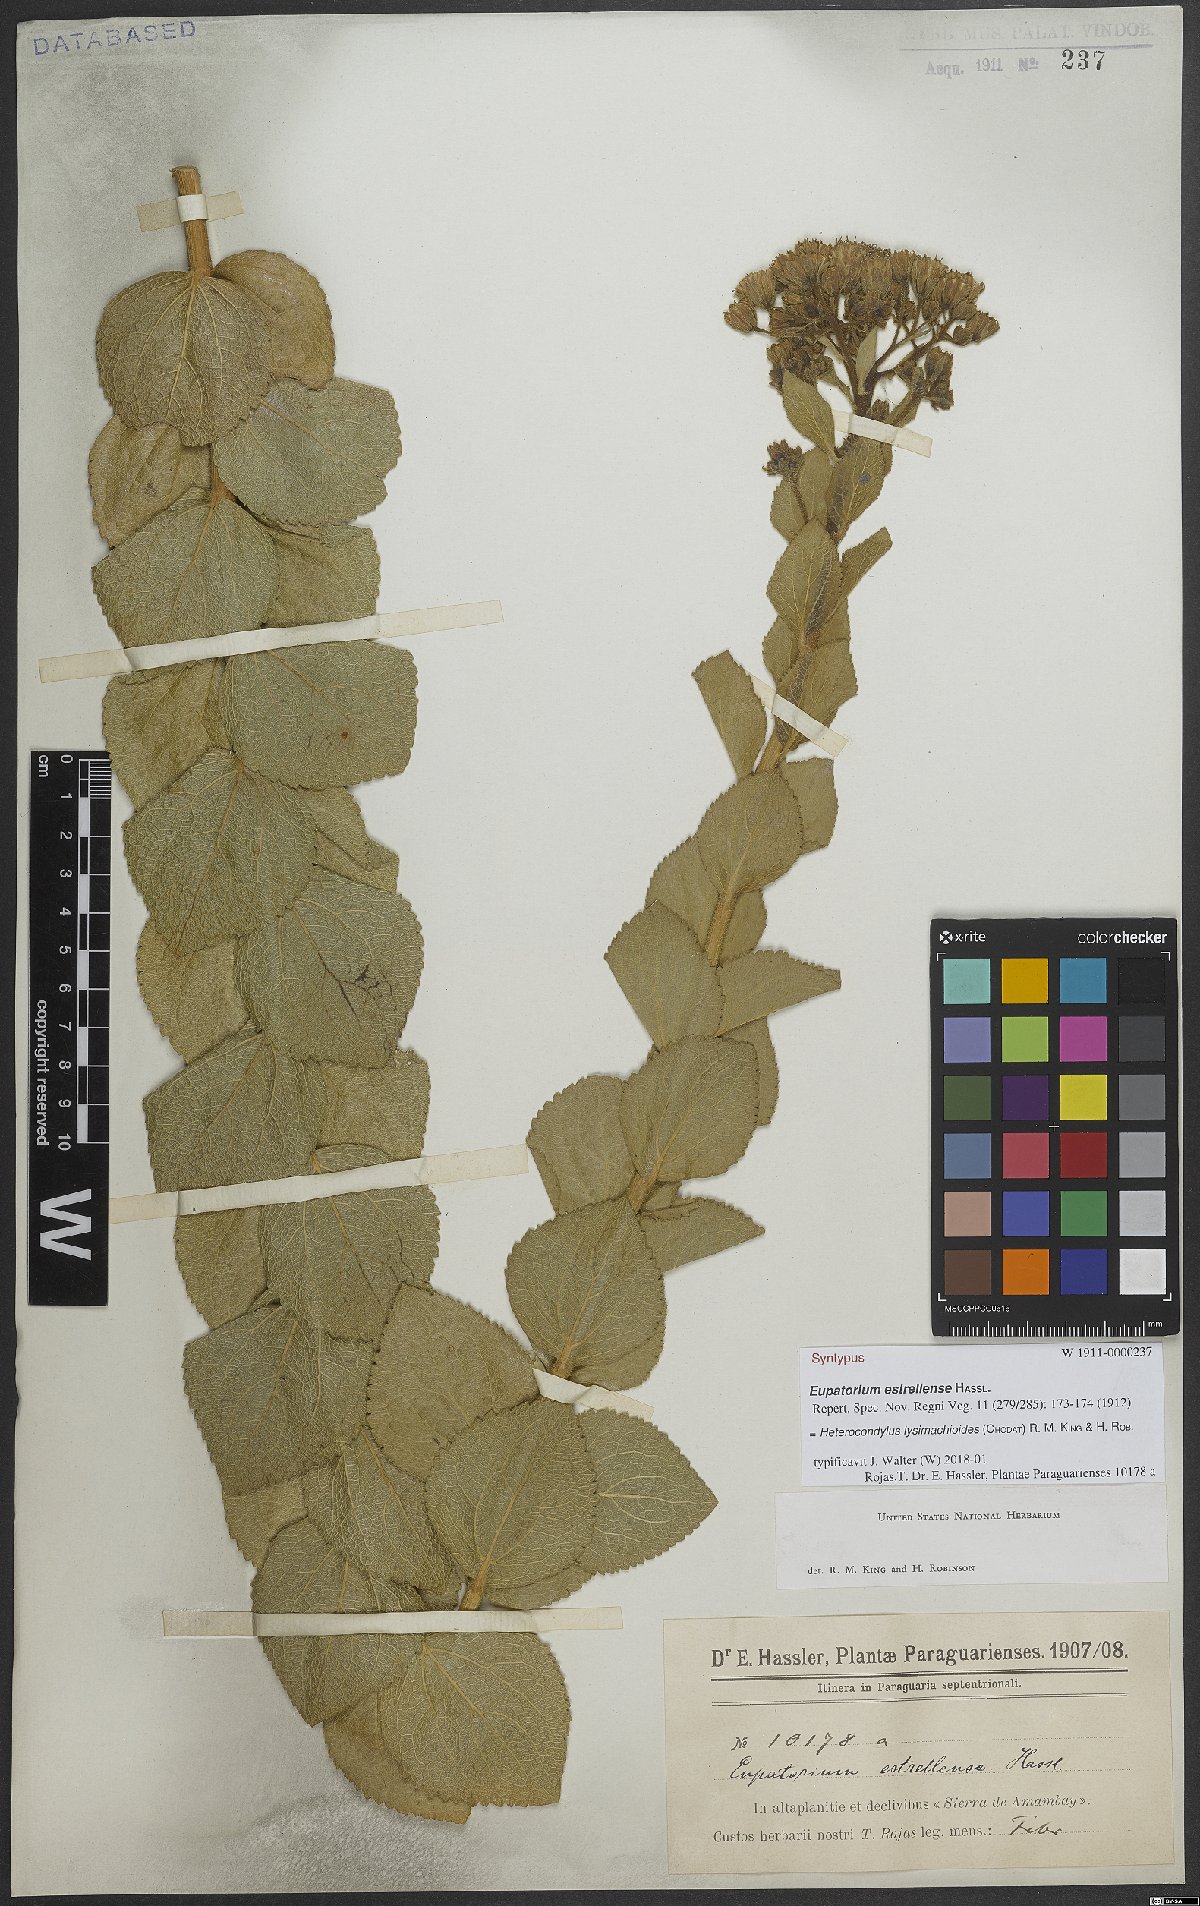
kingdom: Plantae
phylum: Tracheophyta
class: Magnoliopsida
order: Asterales
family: Asteraceae
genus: Heterocondylus
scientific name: Heterocondylus lysimachioides
